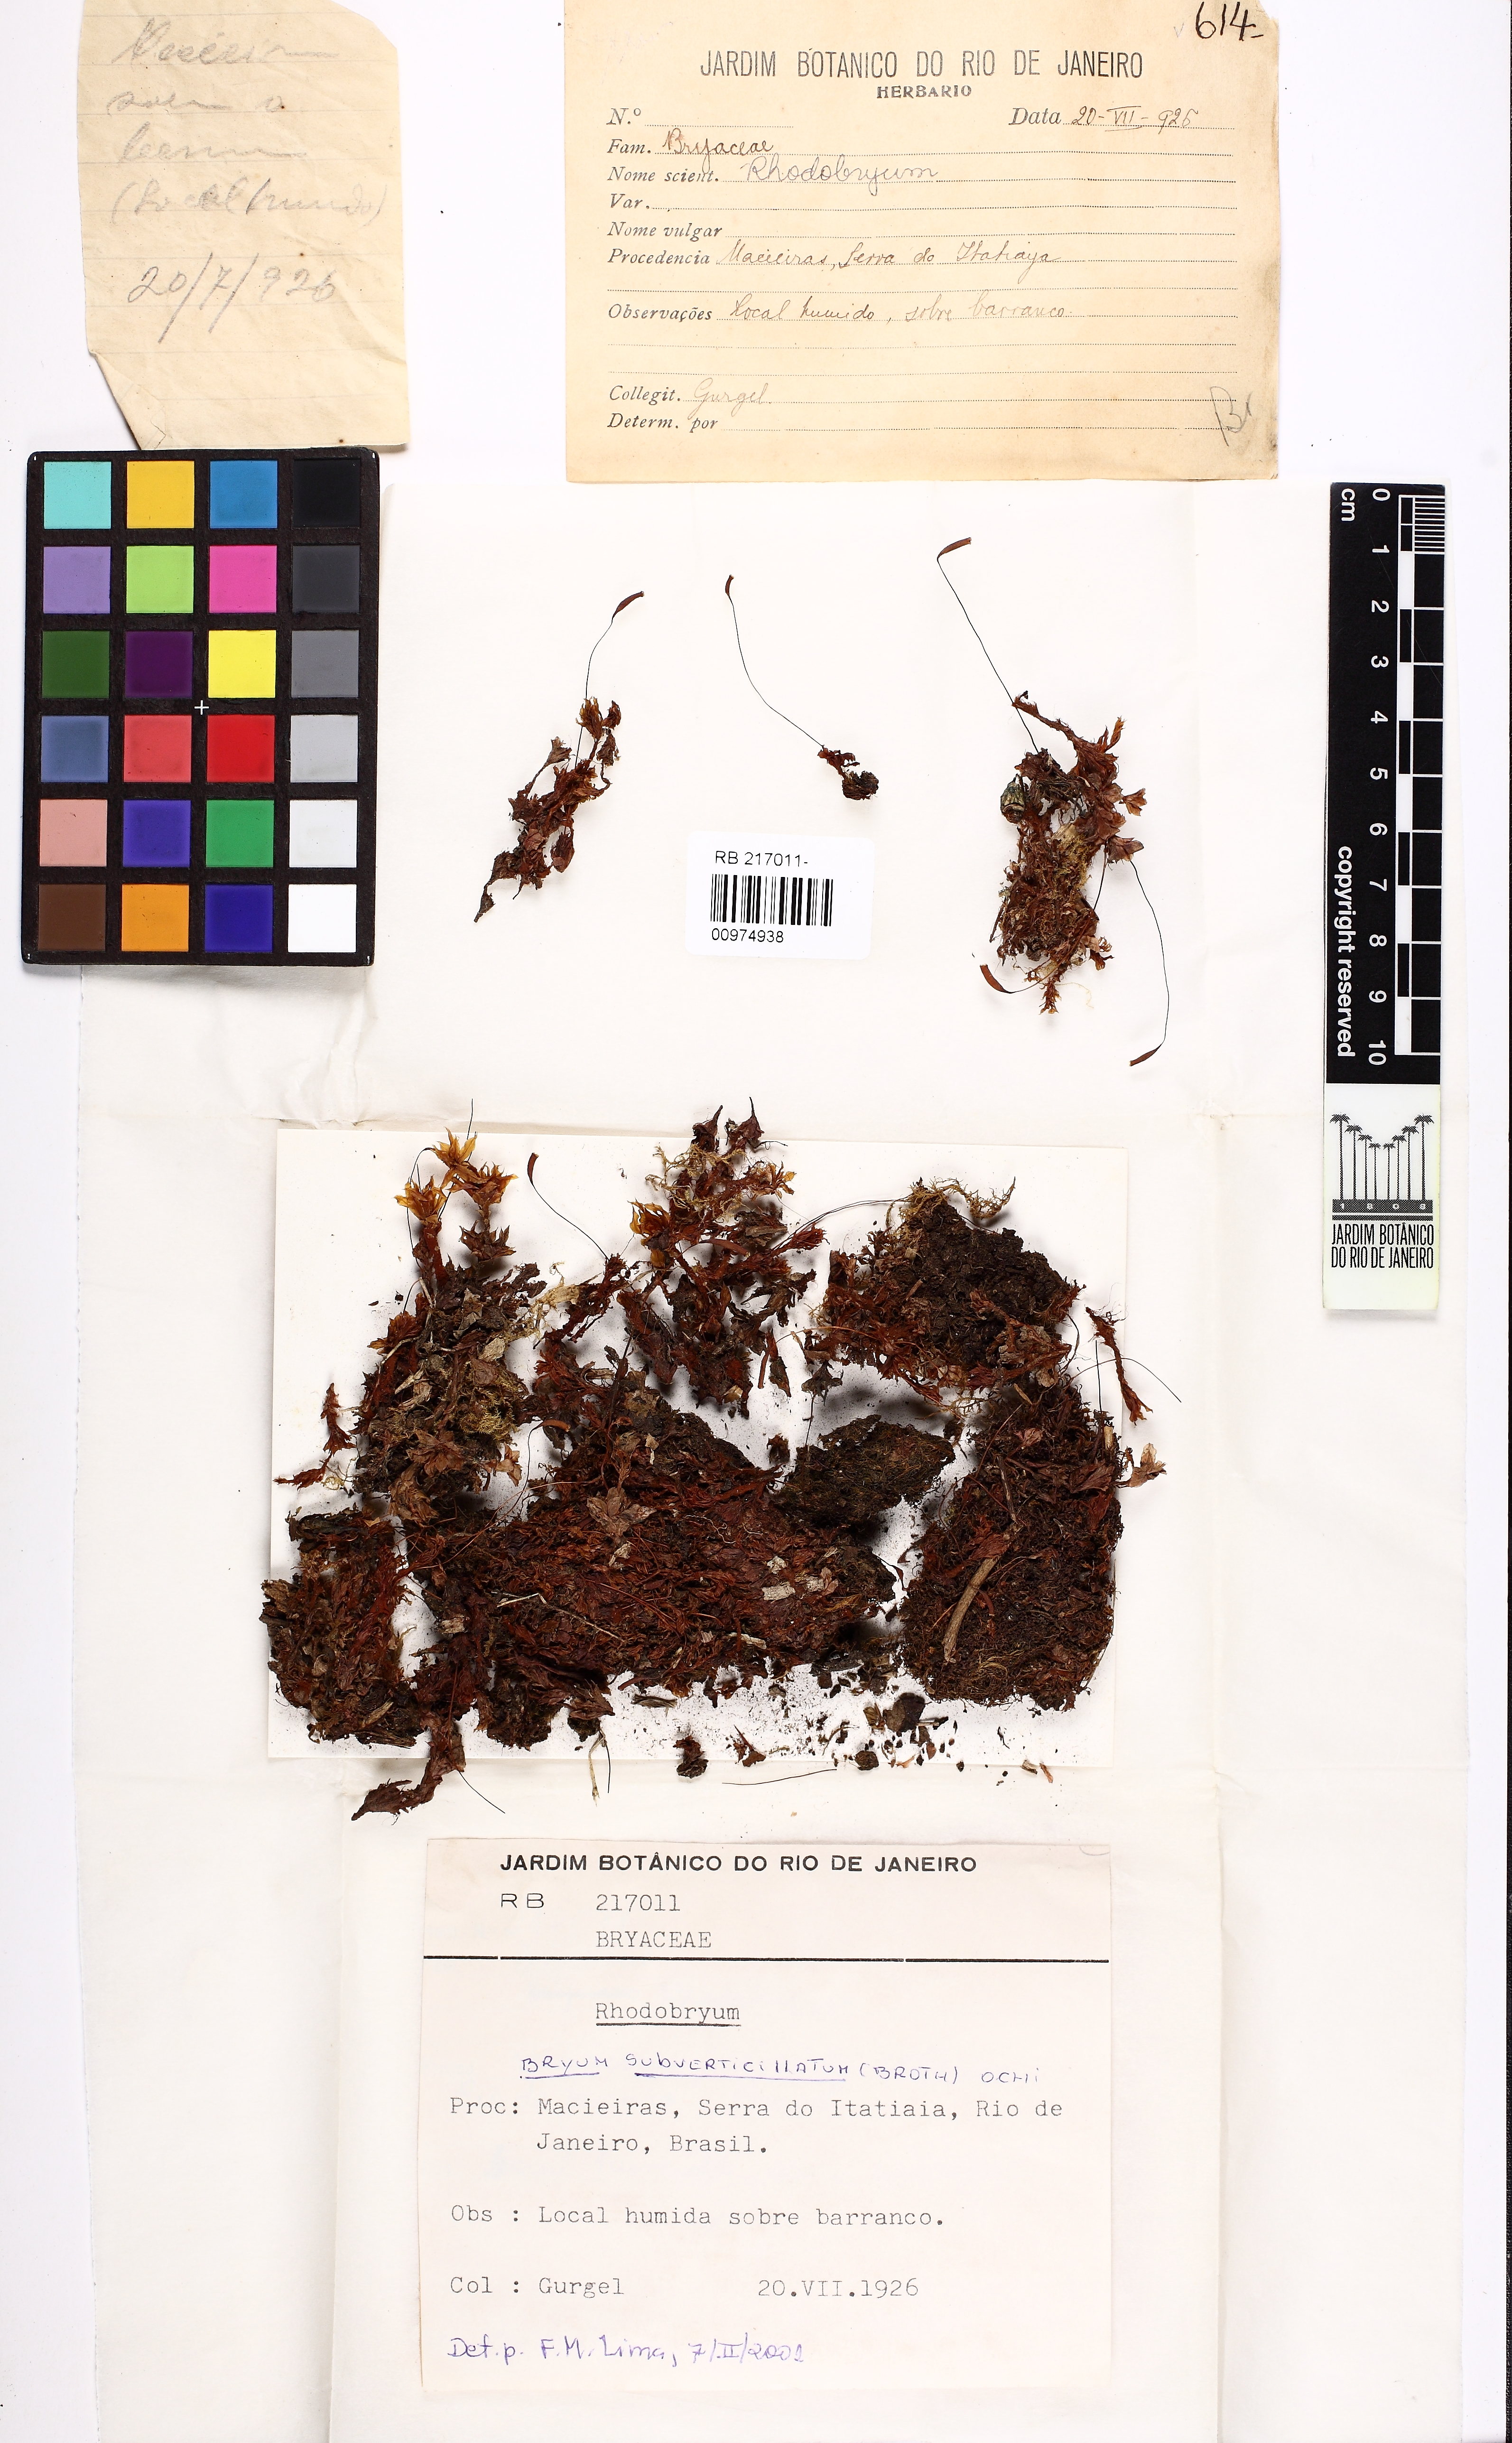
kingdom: Plantae
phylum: Bryophyta
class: Bryopsida
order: Bryales
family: Bryaceae
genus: Rhodobryum
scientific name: Rhodobryum subverticillatum
